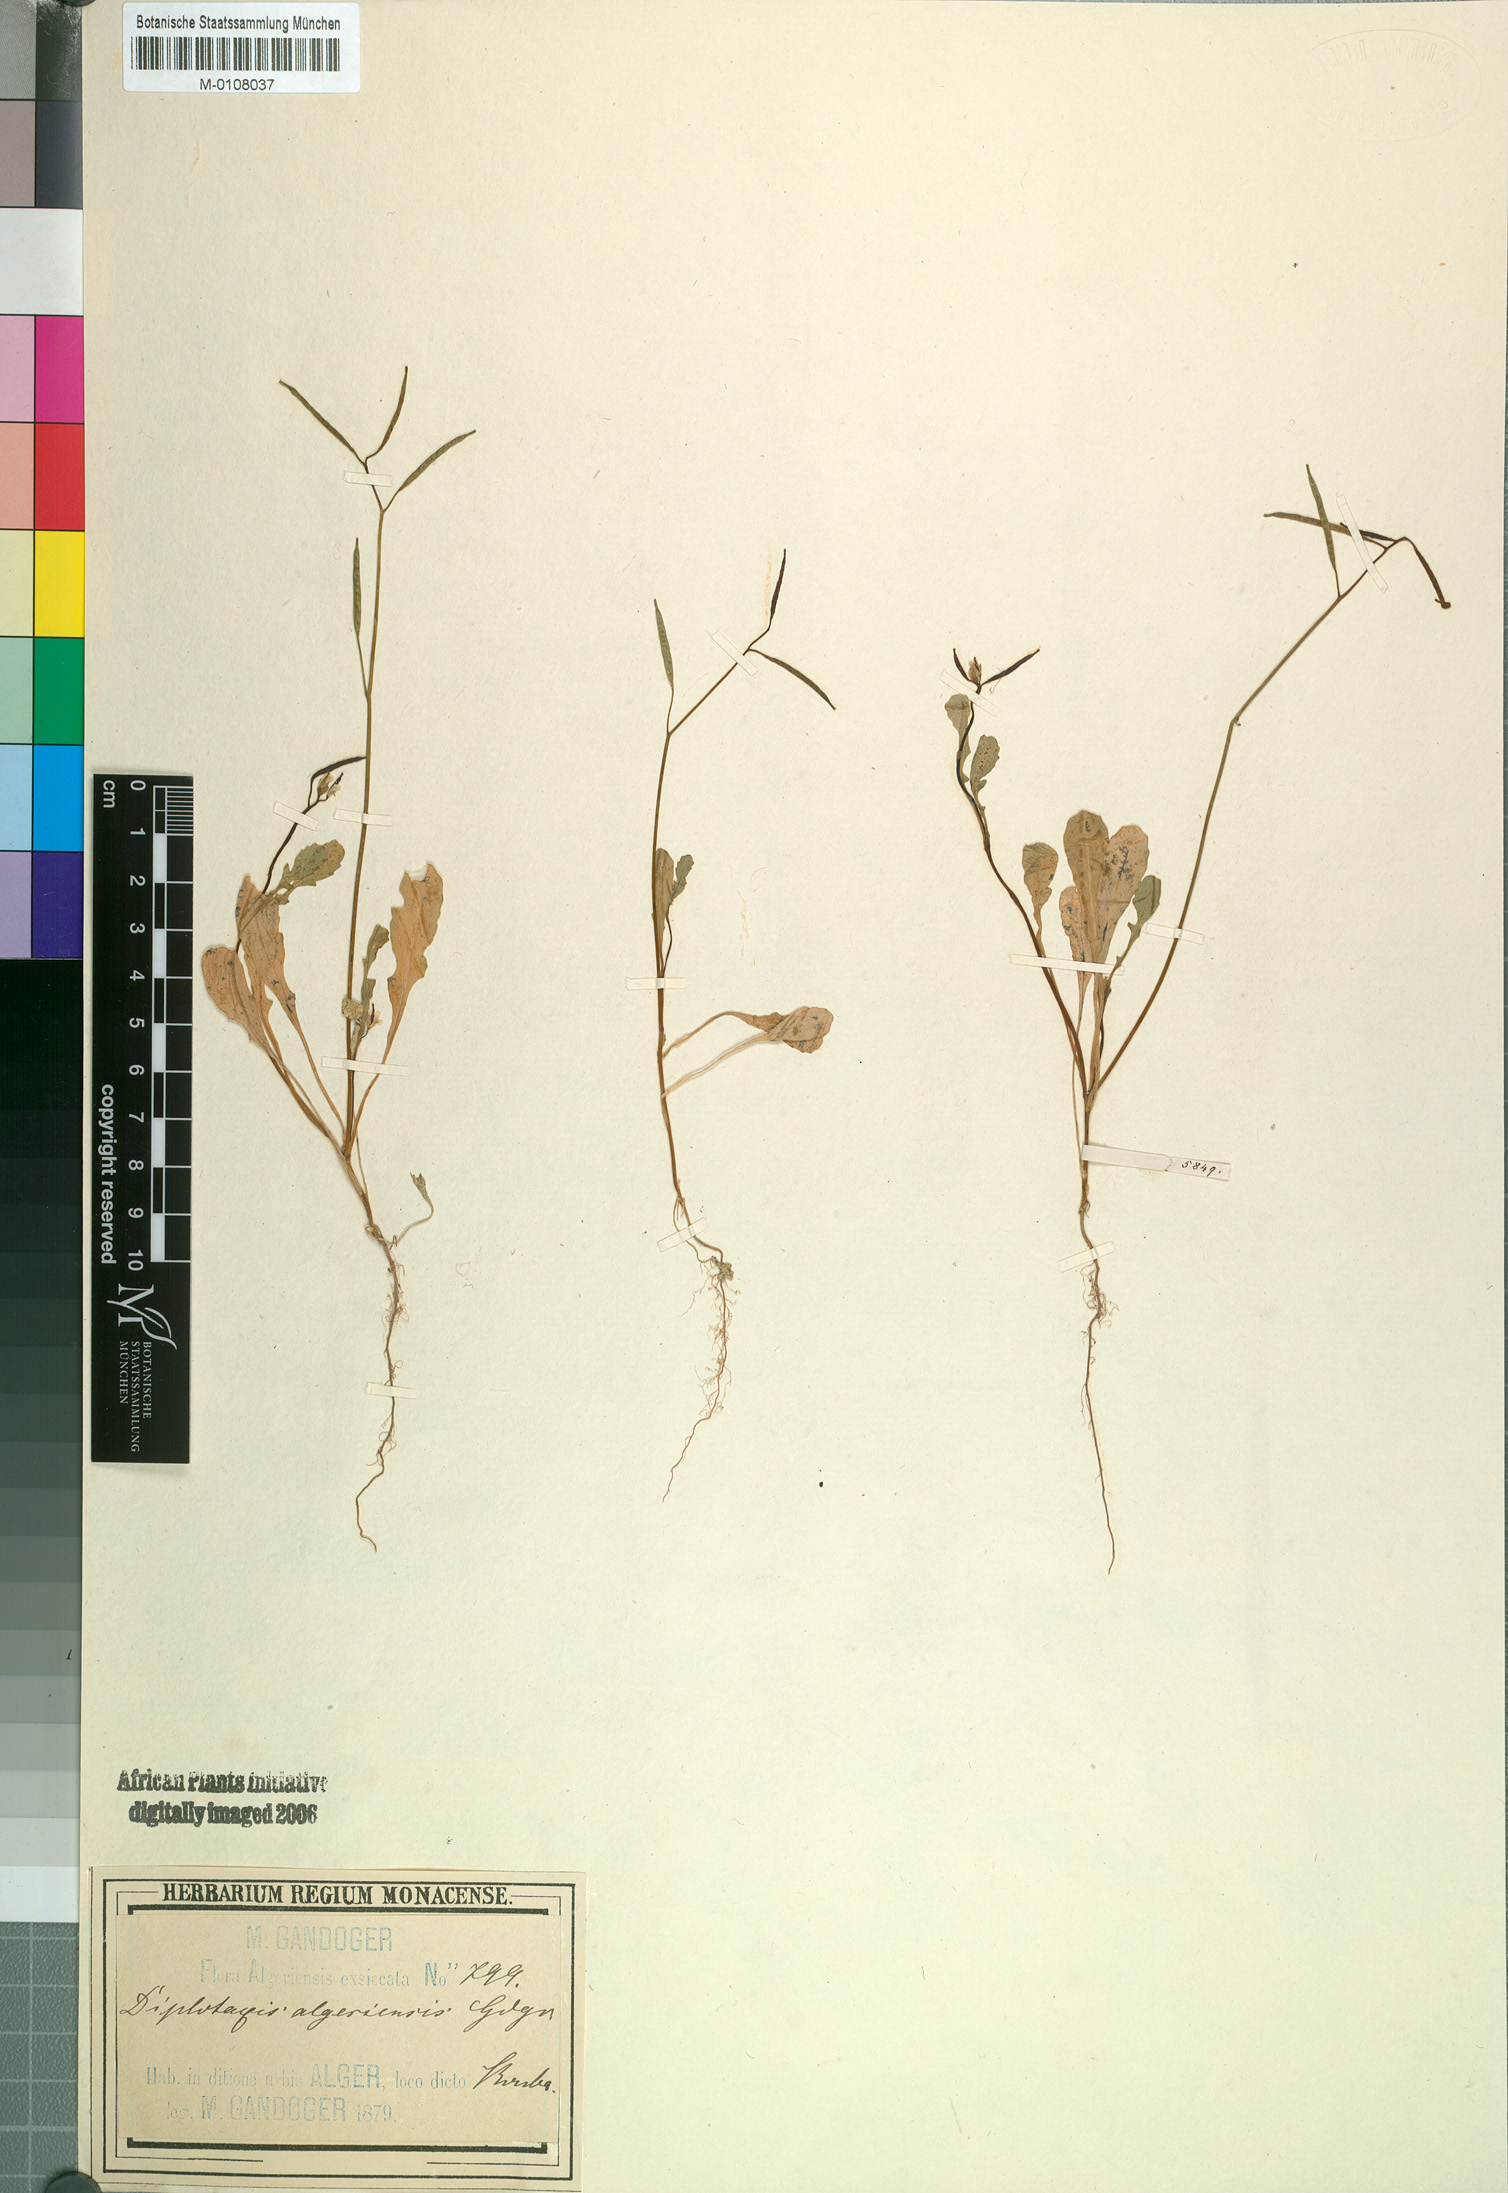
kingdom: Plantae
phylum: Tracheophyta
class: Magnoliopsida
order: Brassicales
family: Brassicaceae
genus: Diplotaxis
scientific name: Diplotaxis
